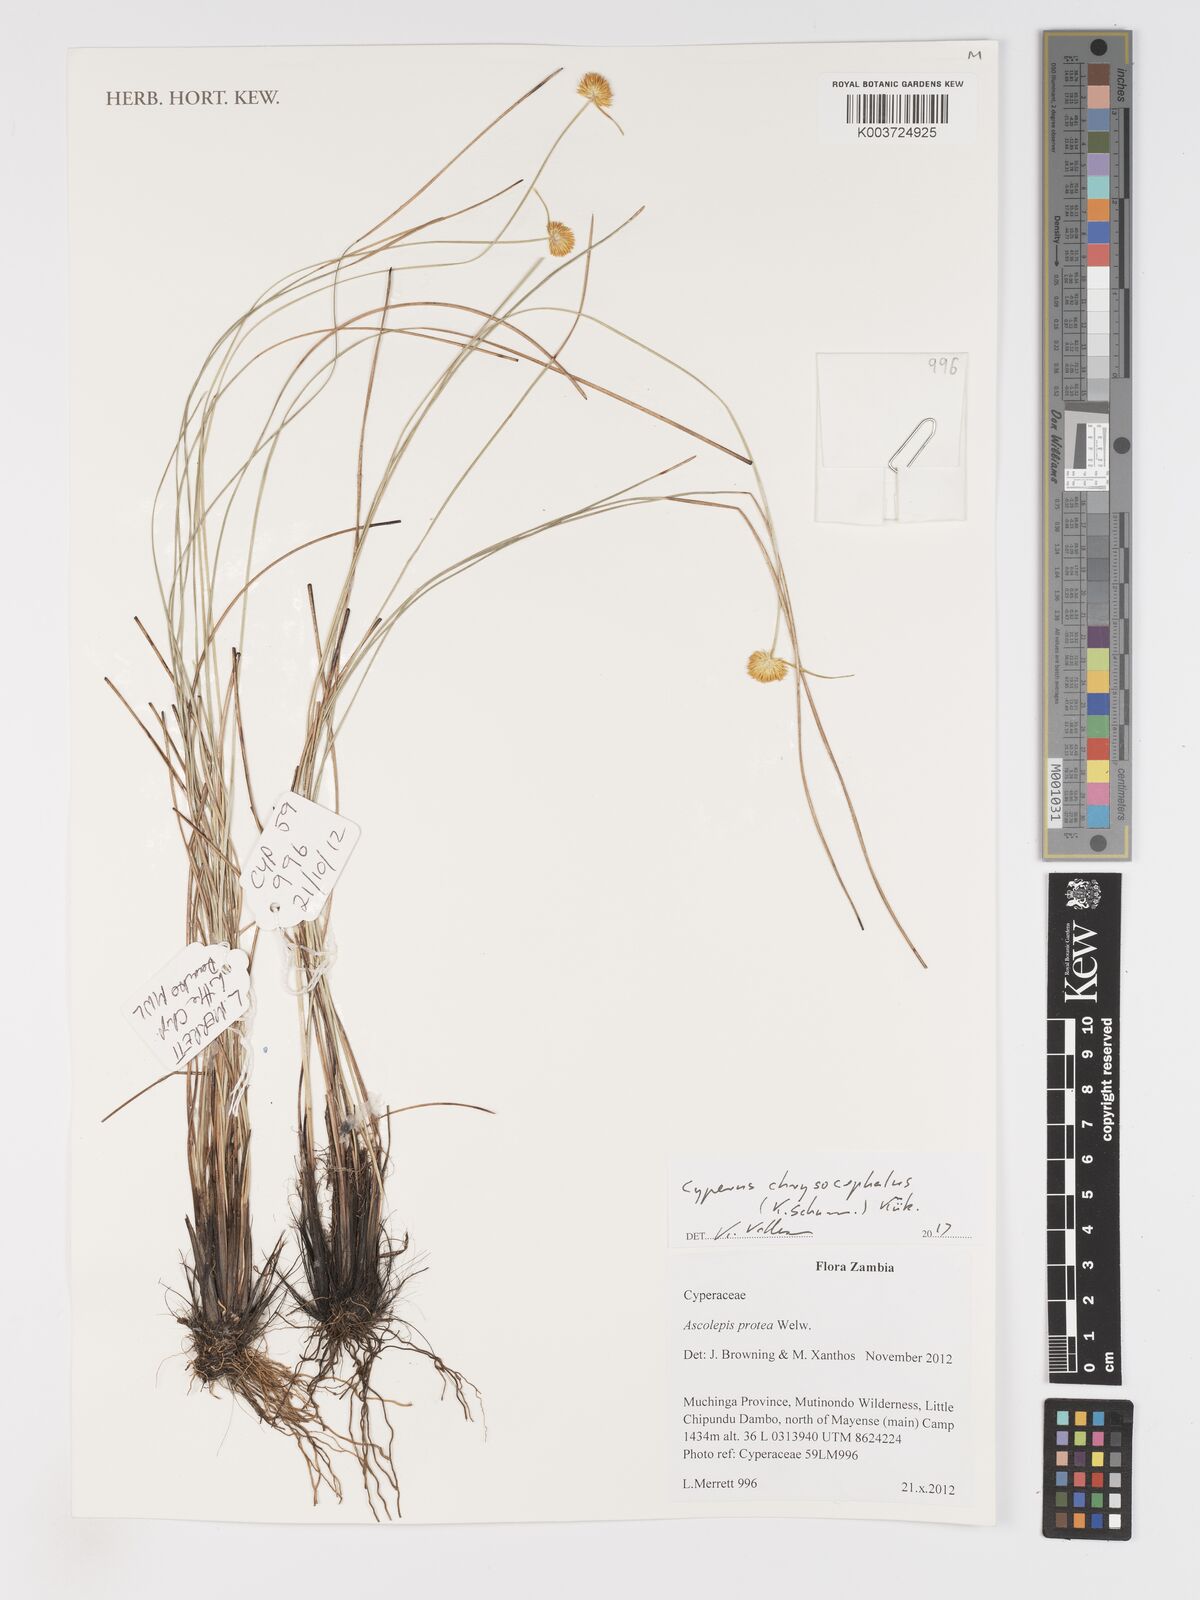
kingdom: Plantae
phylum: Tracheophyta
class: Liliopsida
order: Poales
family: Cyperaceae
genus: Cyperus
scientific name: Cyperus chrysocephalus
